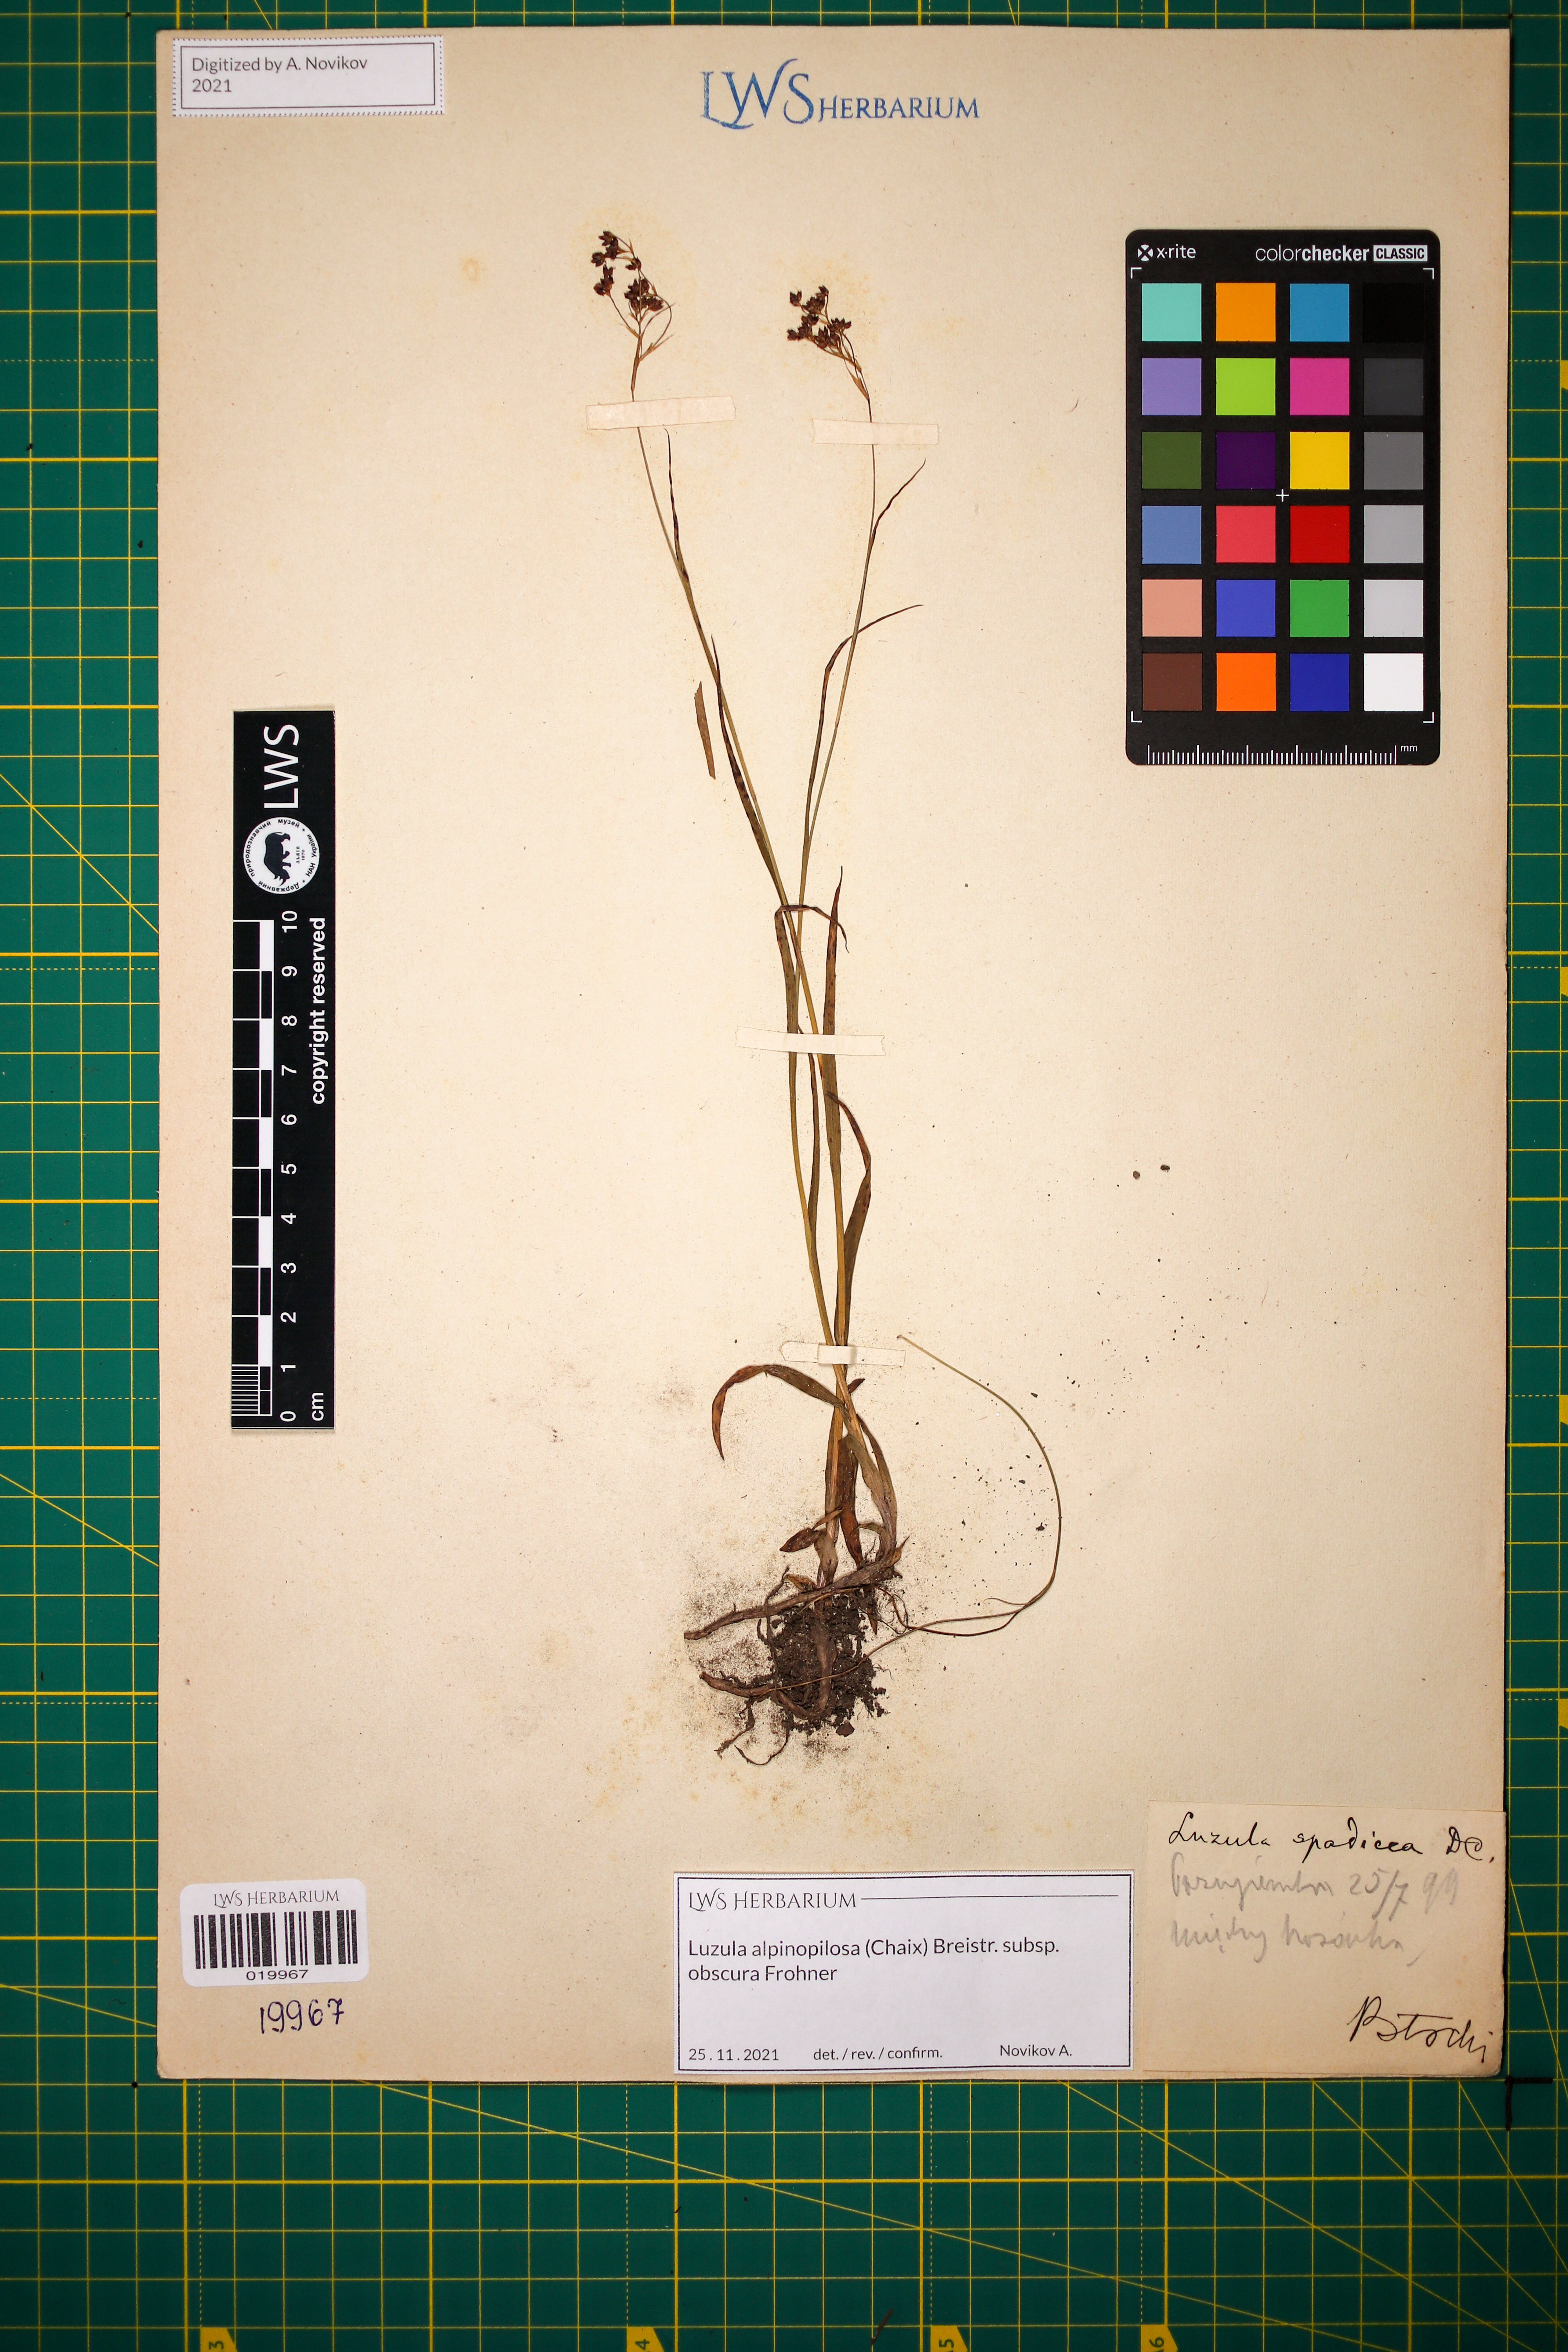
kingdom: Plantae
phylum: Tracheophyta
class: Liliopsida
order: Poales
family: Juncaceae
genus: Luzula
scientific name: Luzula alpinopilosa
